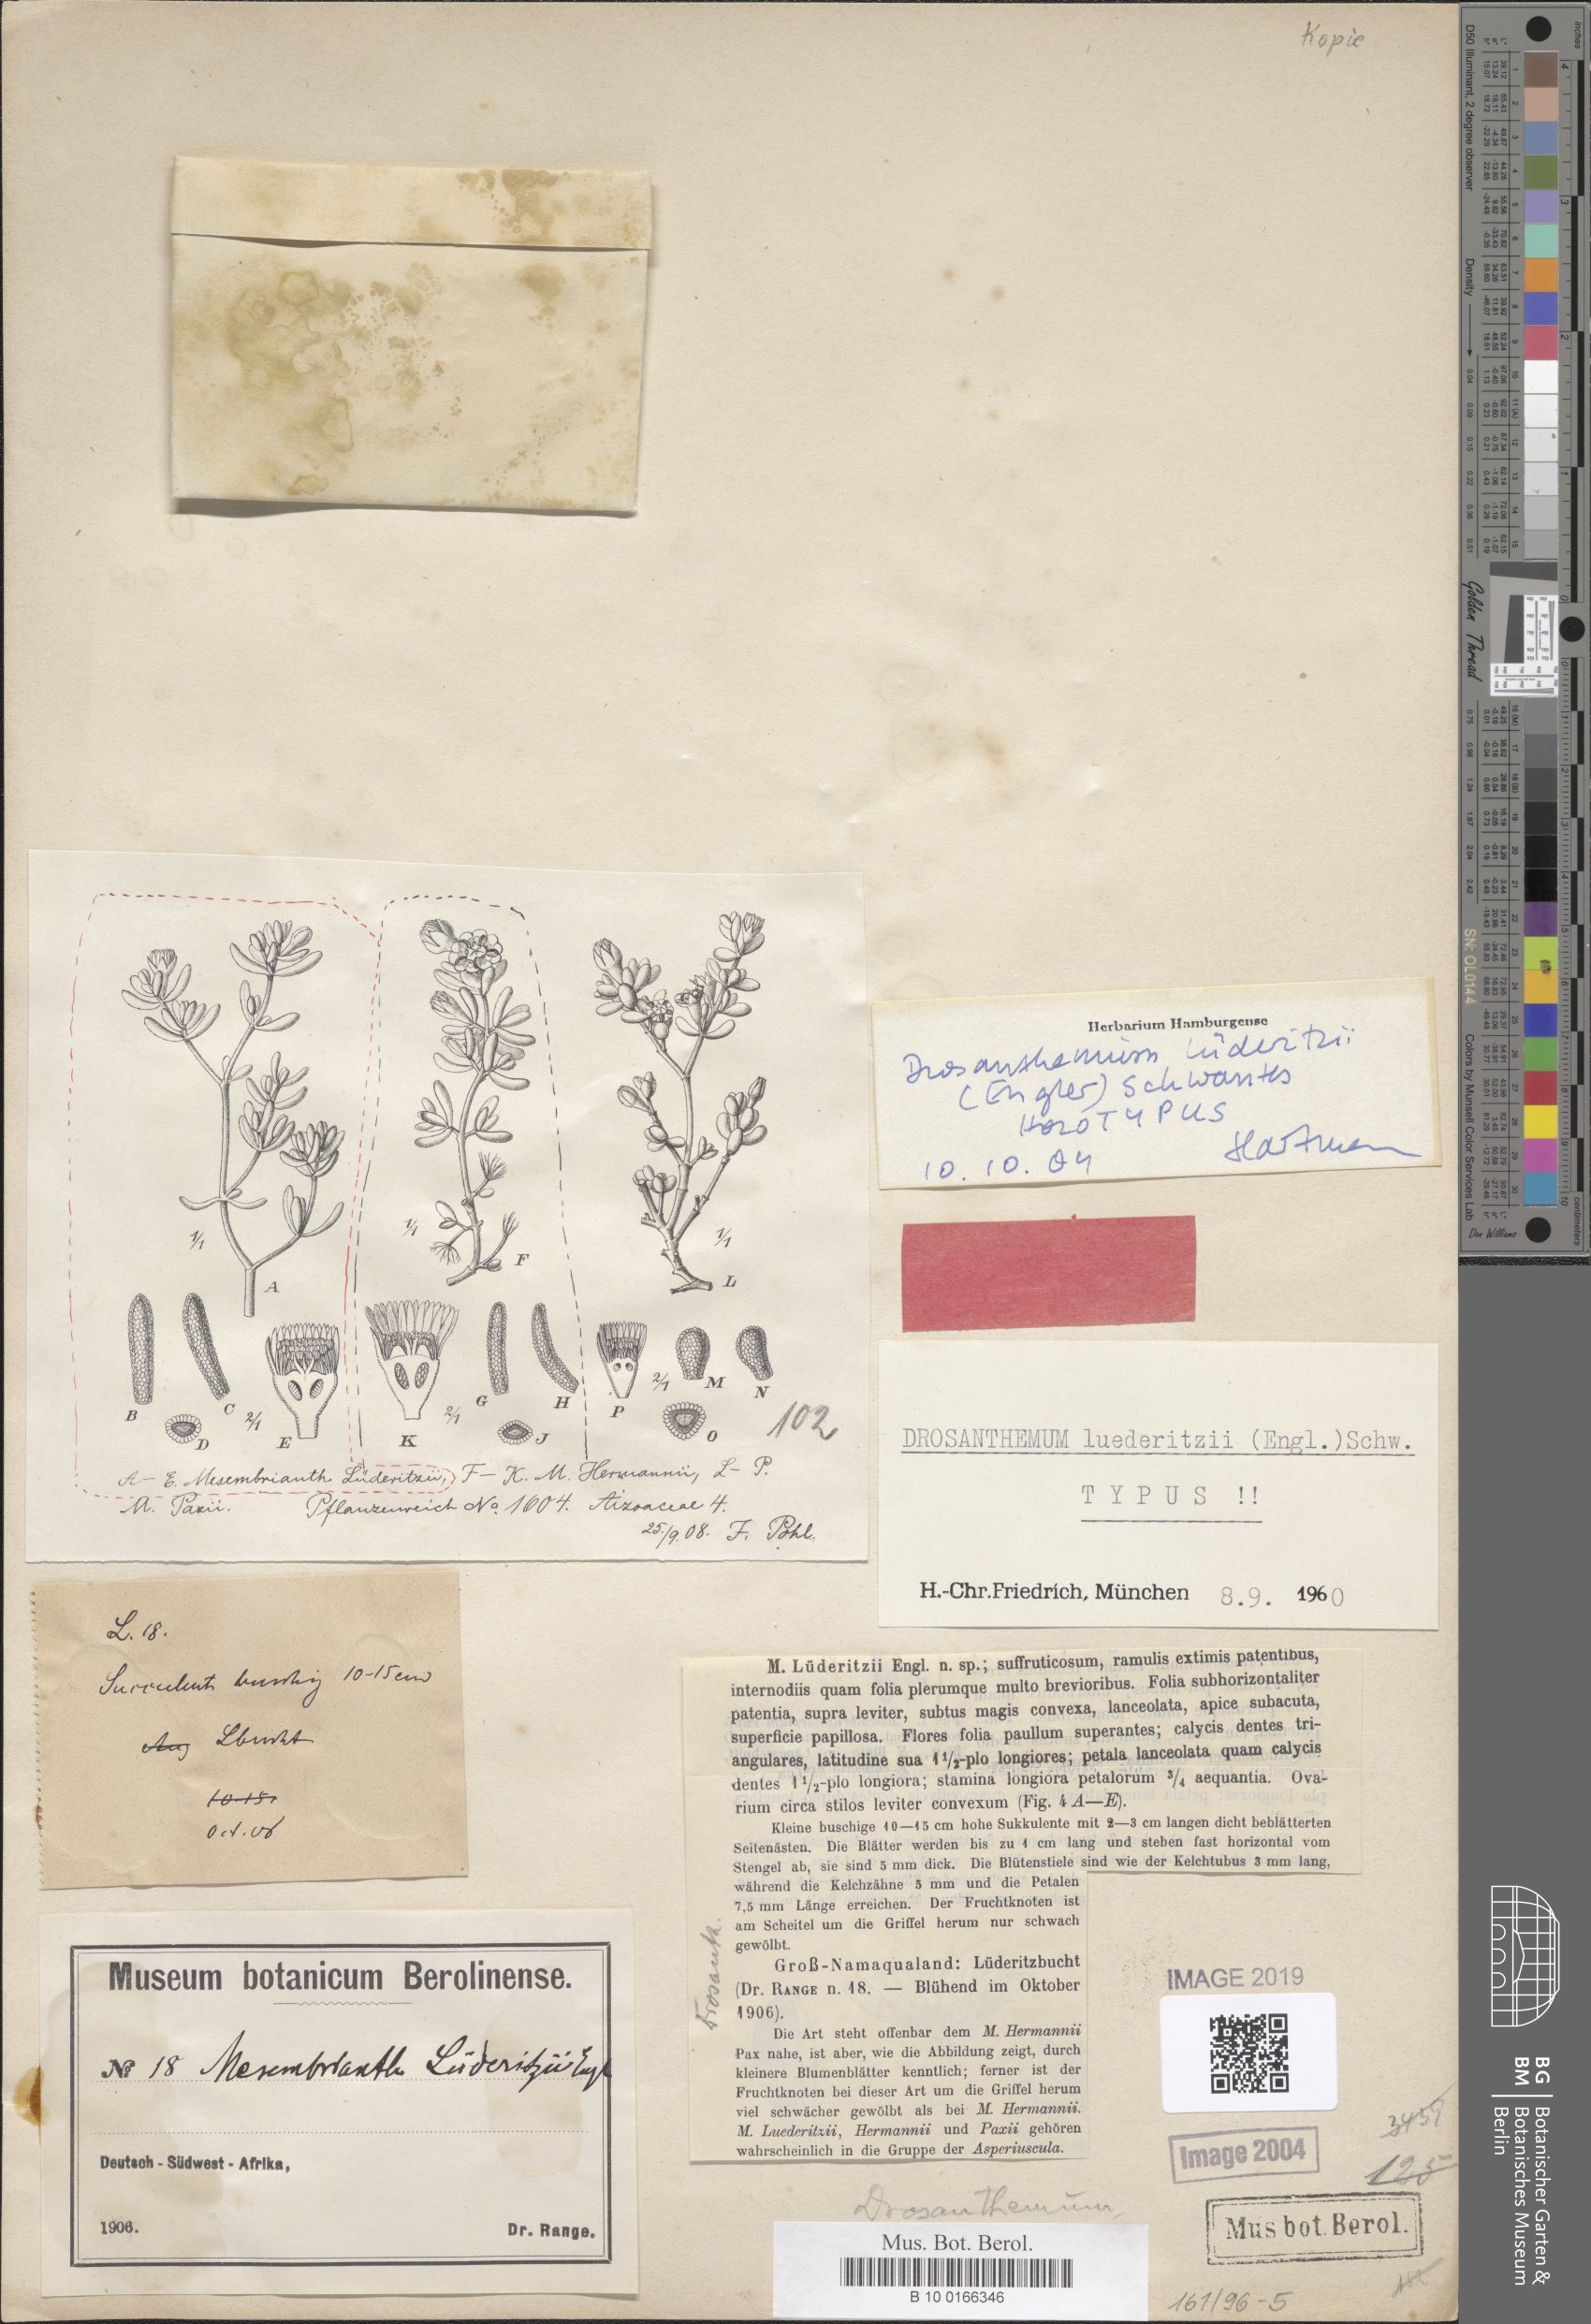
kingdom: Plantae
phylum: Tracheophyta
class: Magnoliopsida
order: Caryophyllales
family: Aizoaceae
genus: Drosanthemum
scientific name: Drosanthemum luederitzii
